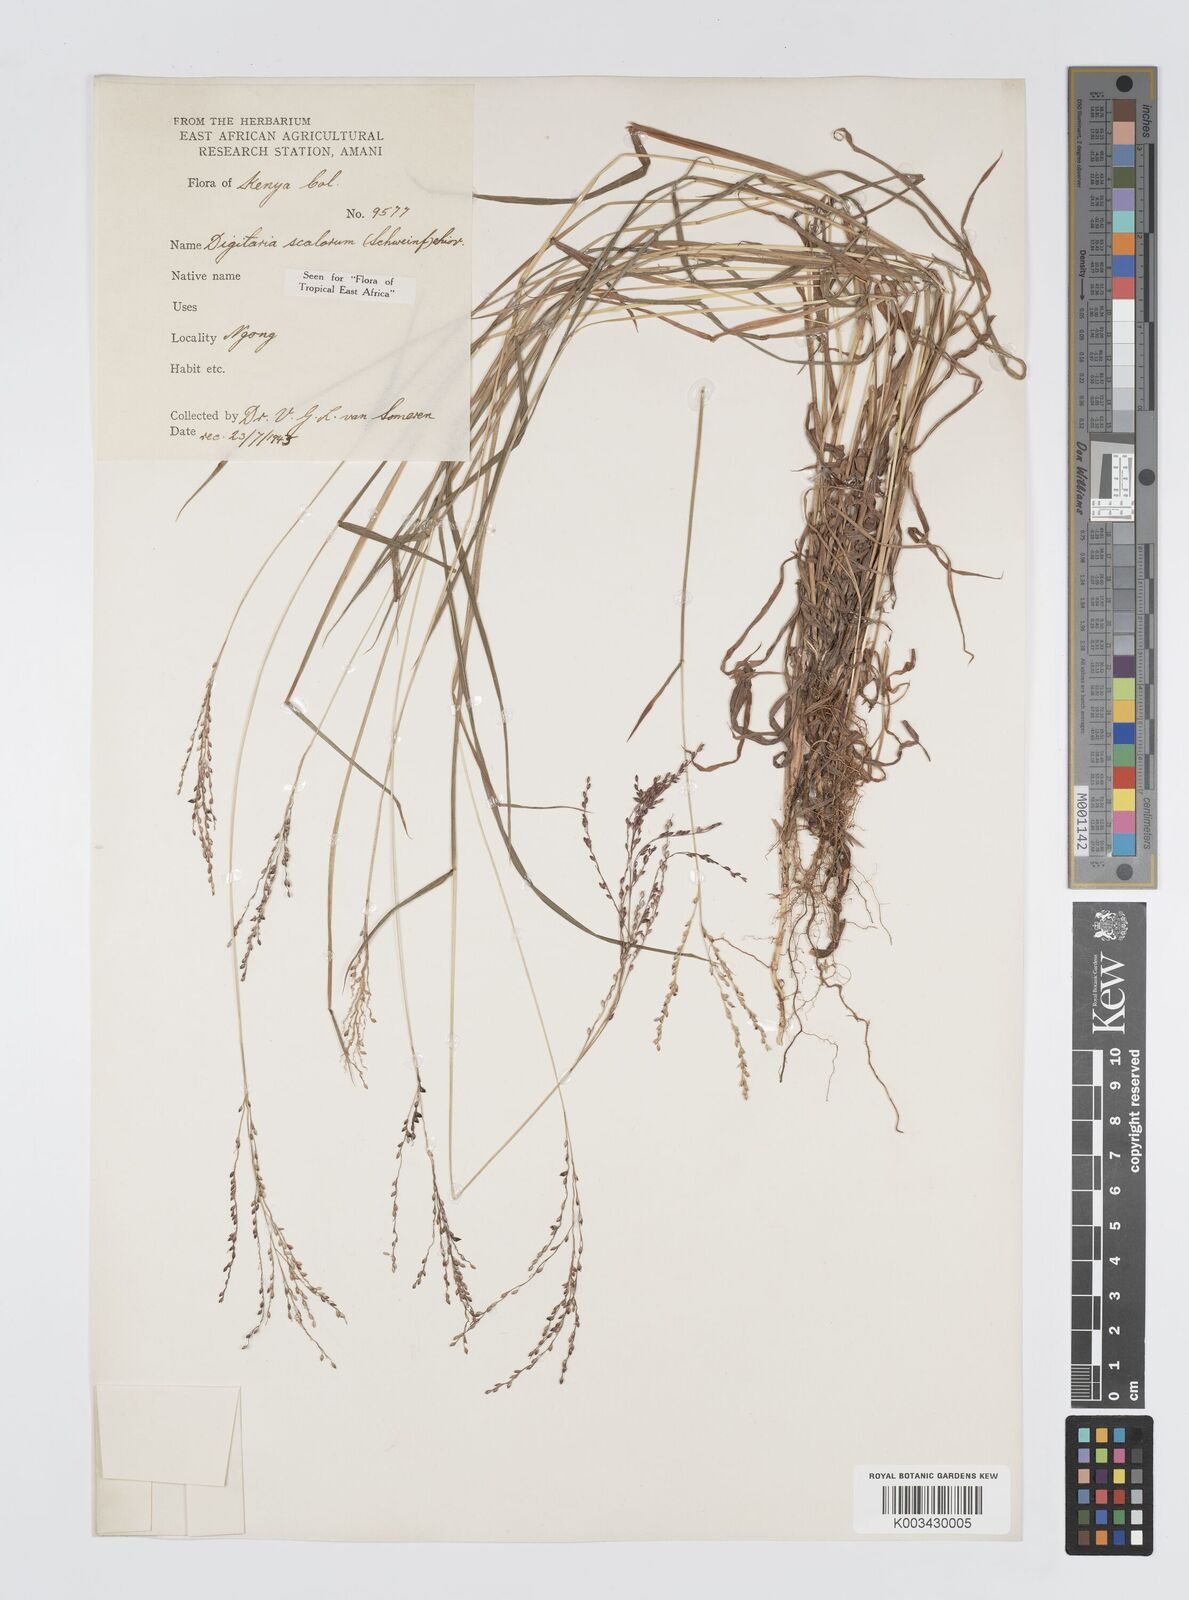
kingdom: Plantae
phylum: Tracheophyta
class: Liliopsida
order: Poales
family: Poaceae
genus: Digitaria
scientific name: Digitaria abyssinica
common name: African couchgrass
